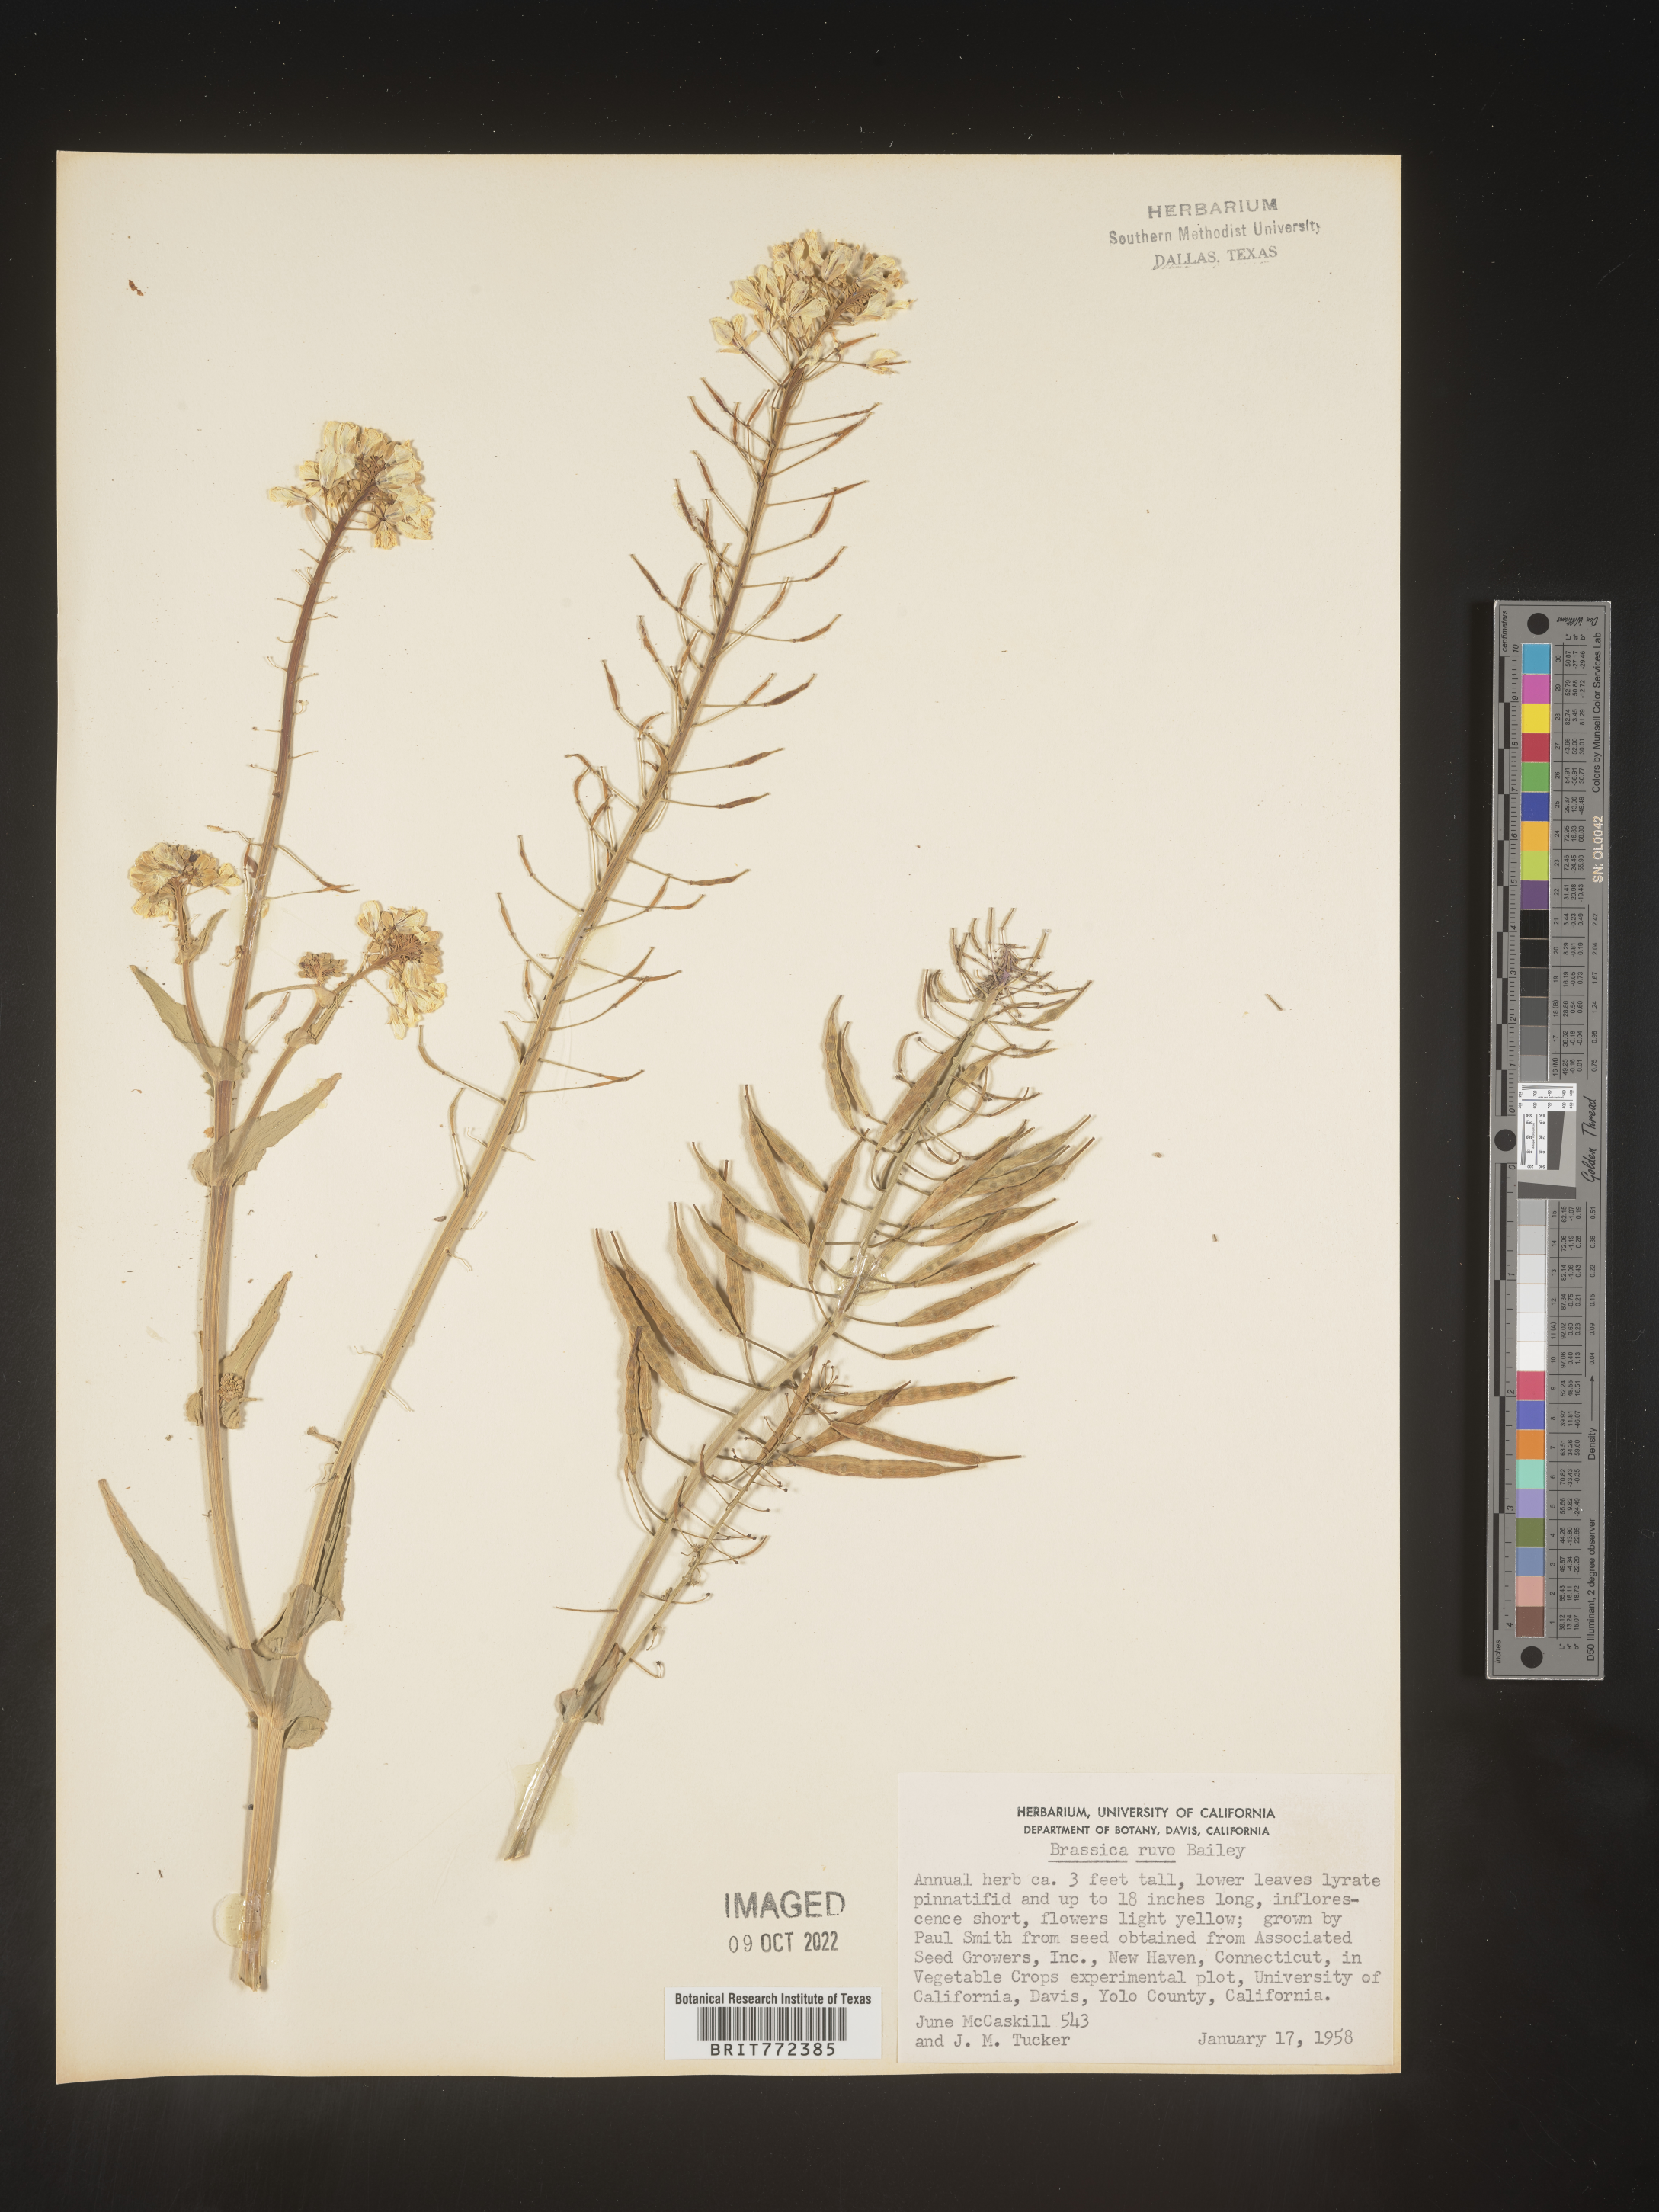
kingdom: Plantae
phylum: Tracheophyta
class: Magnoliopsida
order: Brassicales
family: Brassicaceae
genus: Brassica
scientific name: Brassica
